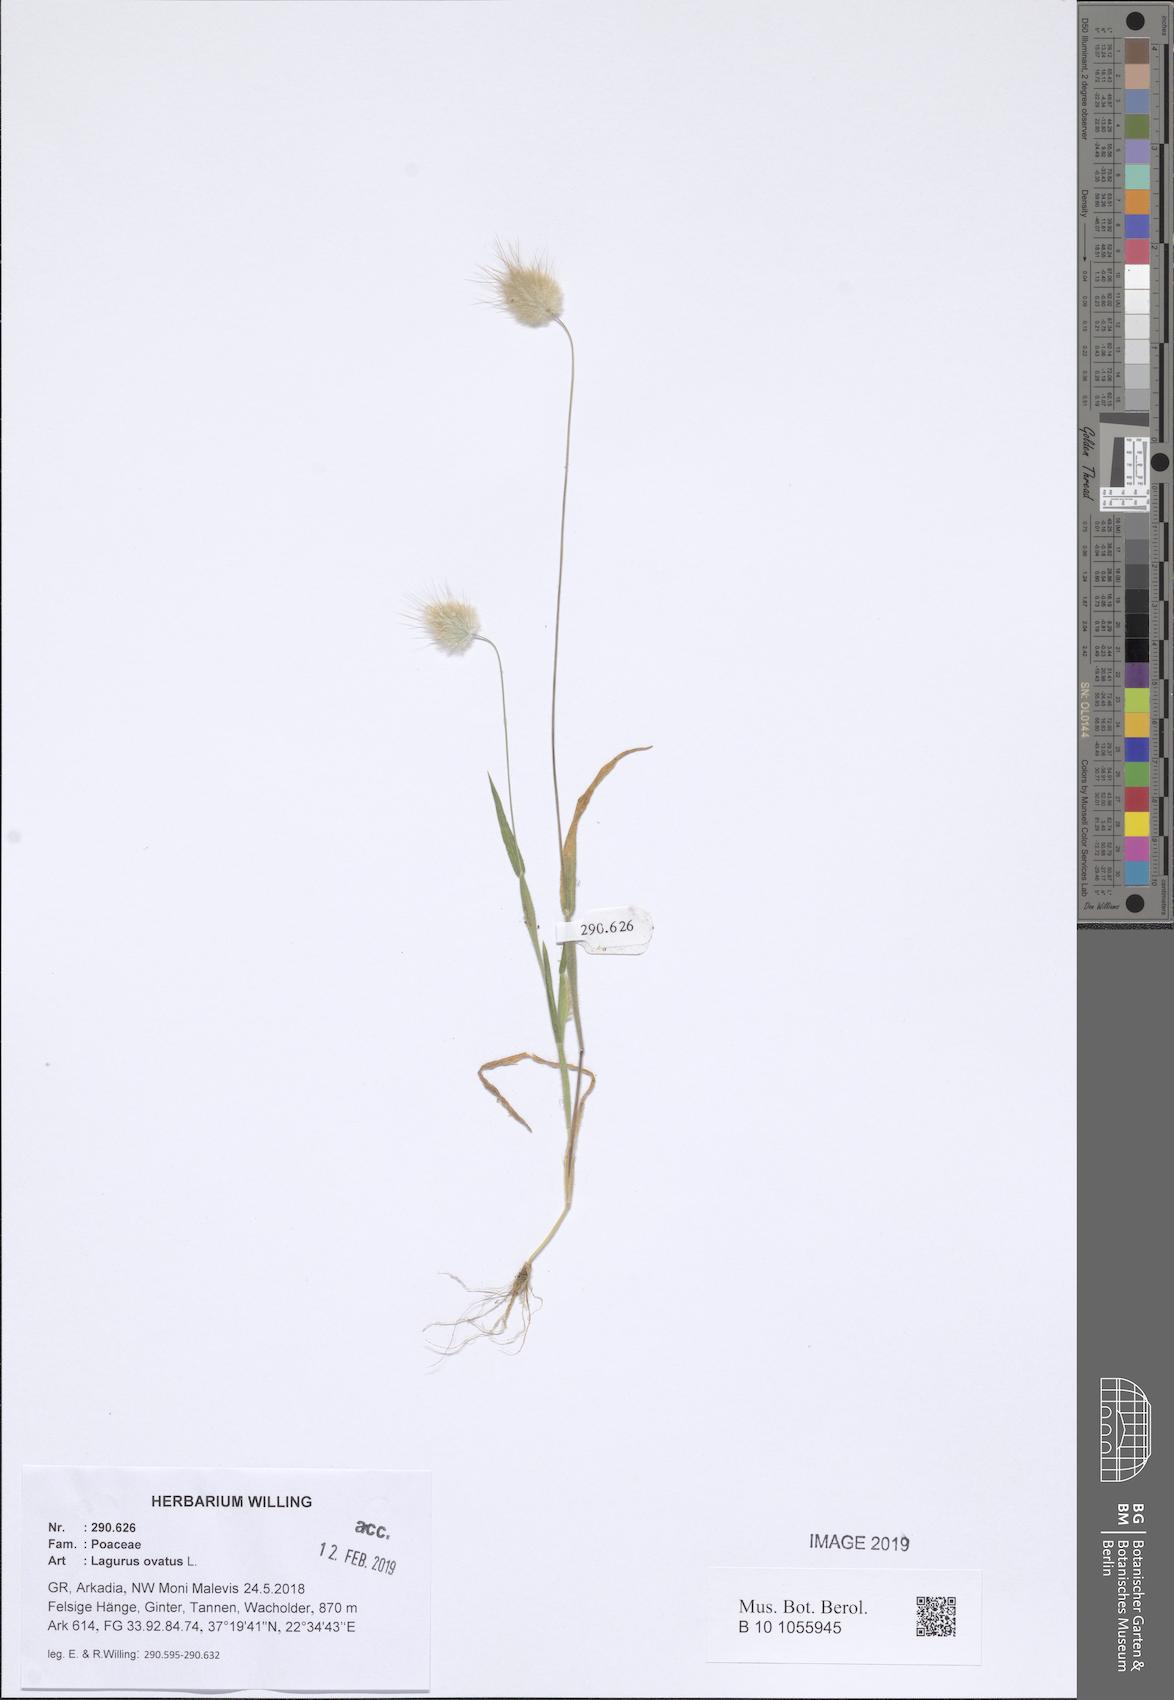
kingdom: Plantae
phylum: Tracheophyta
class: Liliopsida
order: Poales
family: Poaceae
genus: Lagurus
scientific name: Lagurus ovatus
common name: Hare's-tail
